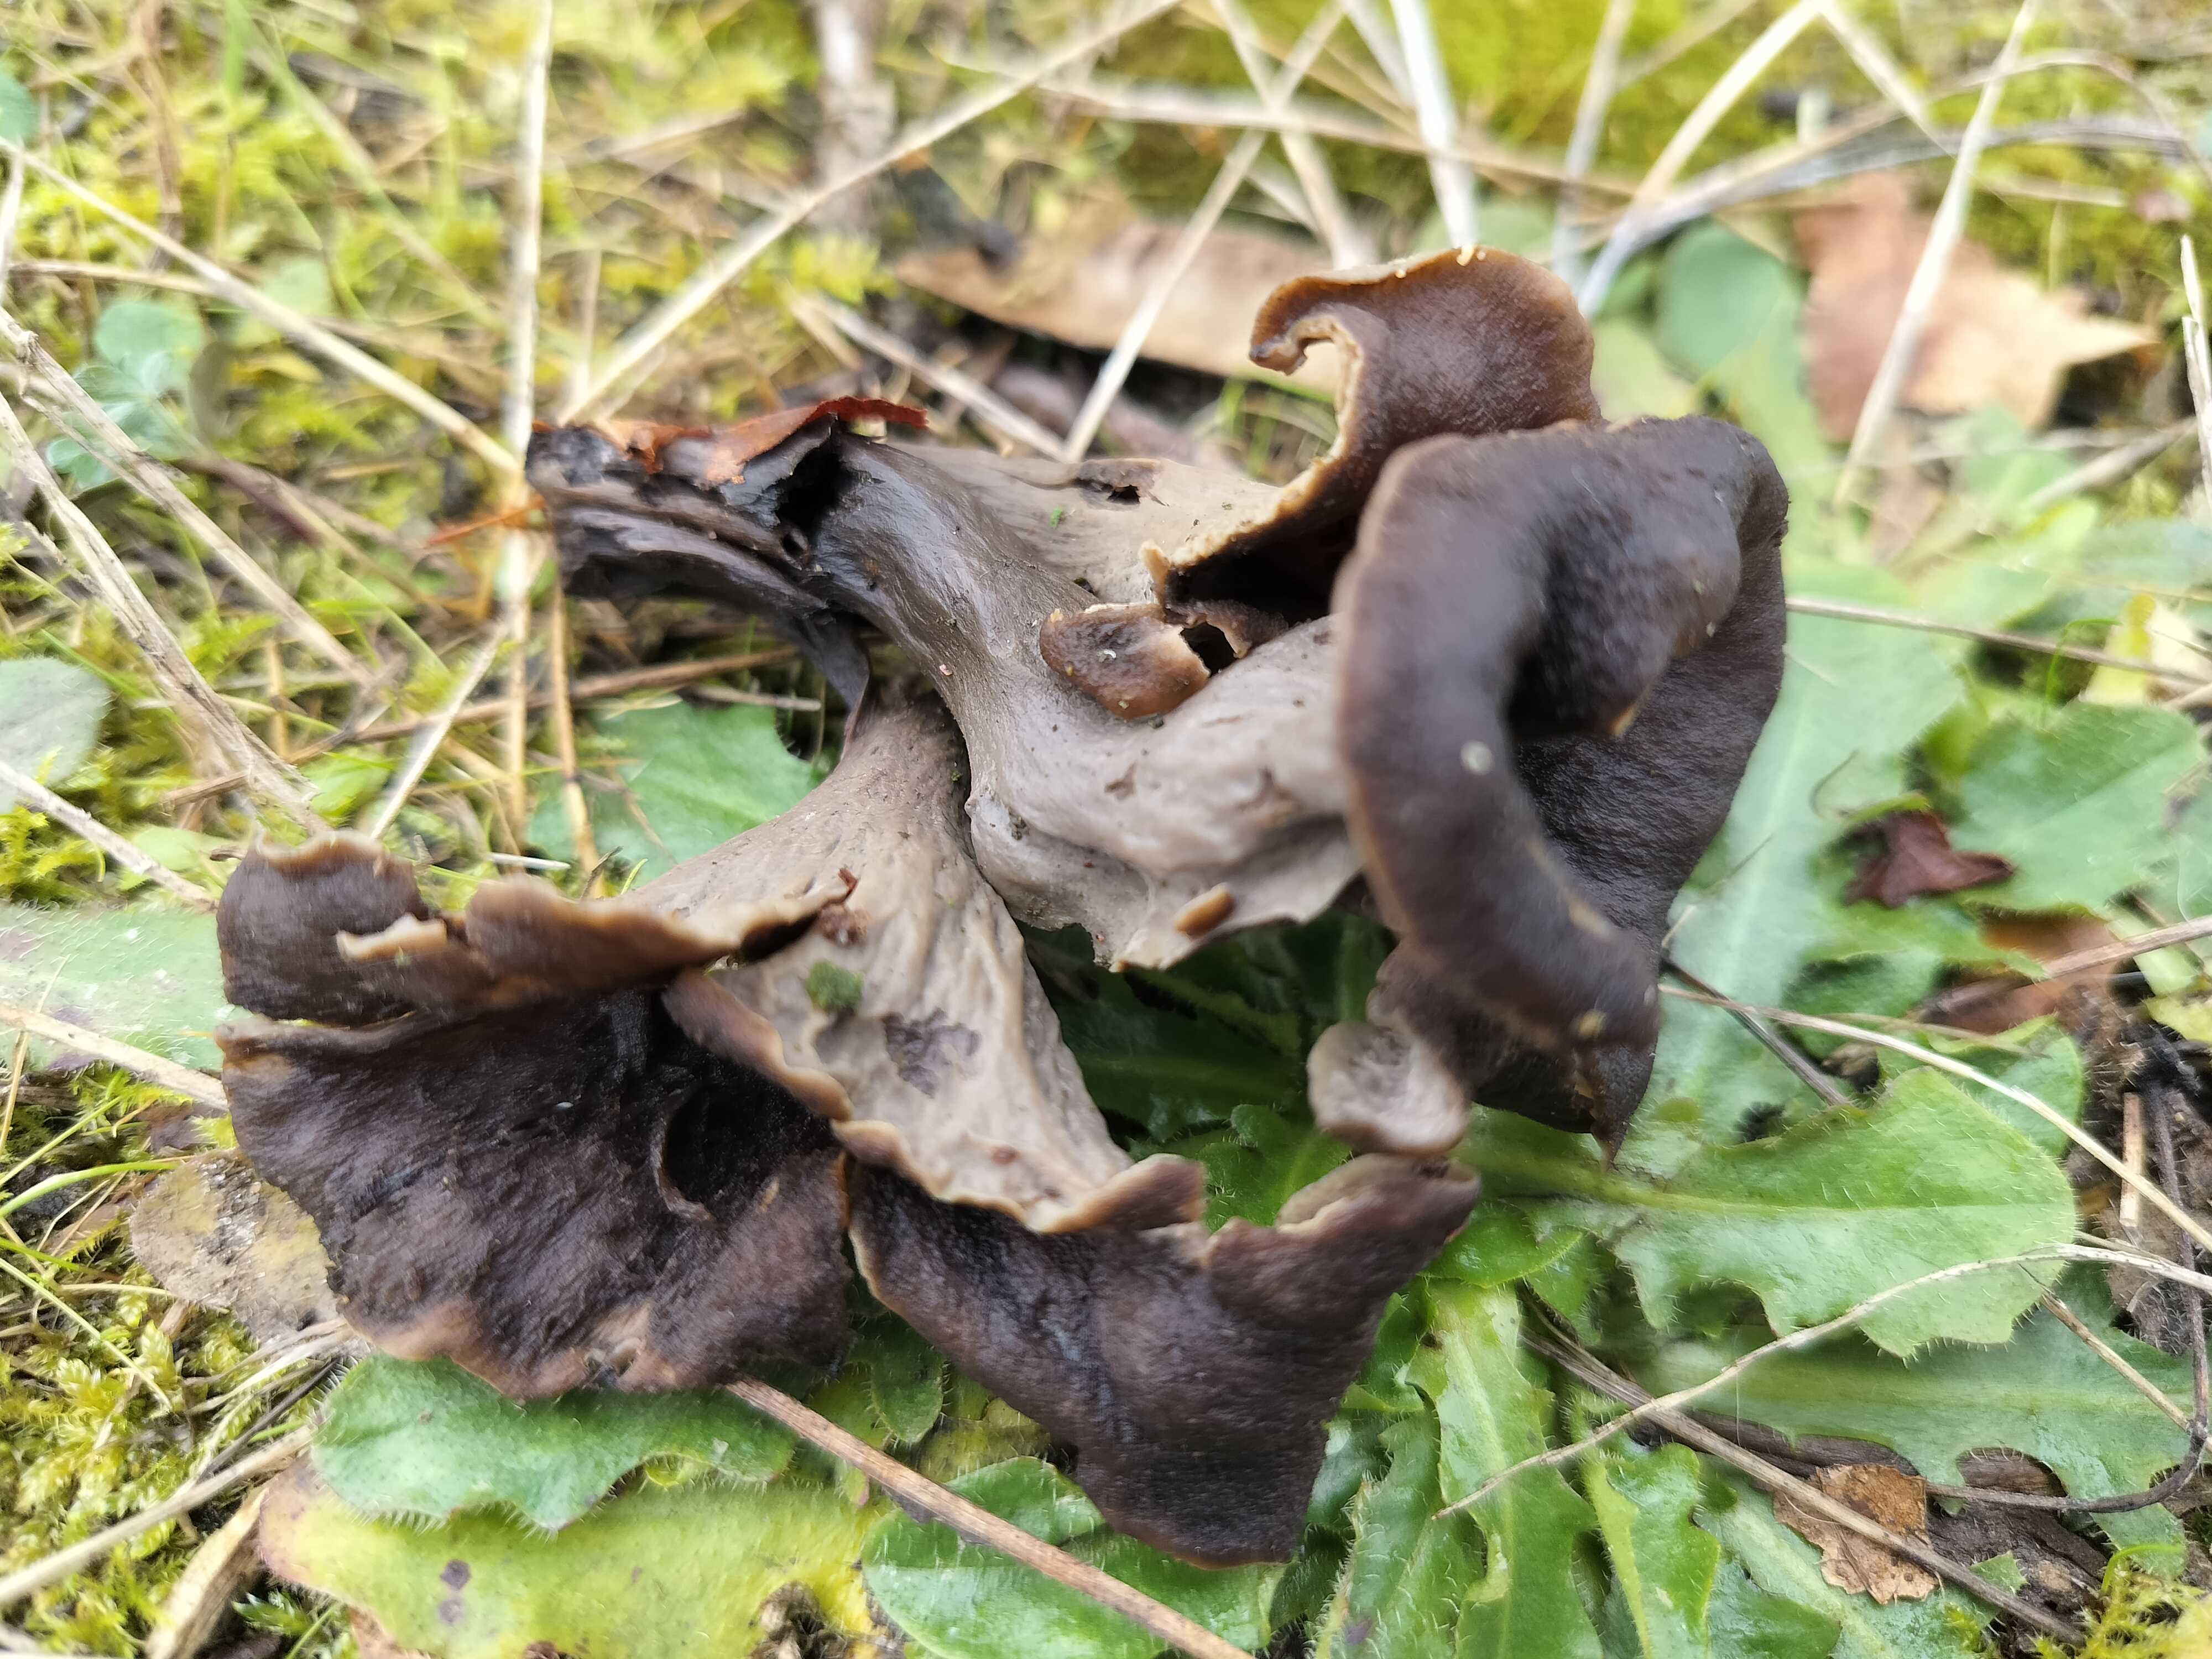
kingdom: Fungi
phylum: Basidiomycota
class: Agaricomycetes
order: Cantharellales
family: Hydnaceae
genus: Craterellus
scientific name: Craterellus cornucopioides
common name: trompetsvamp
